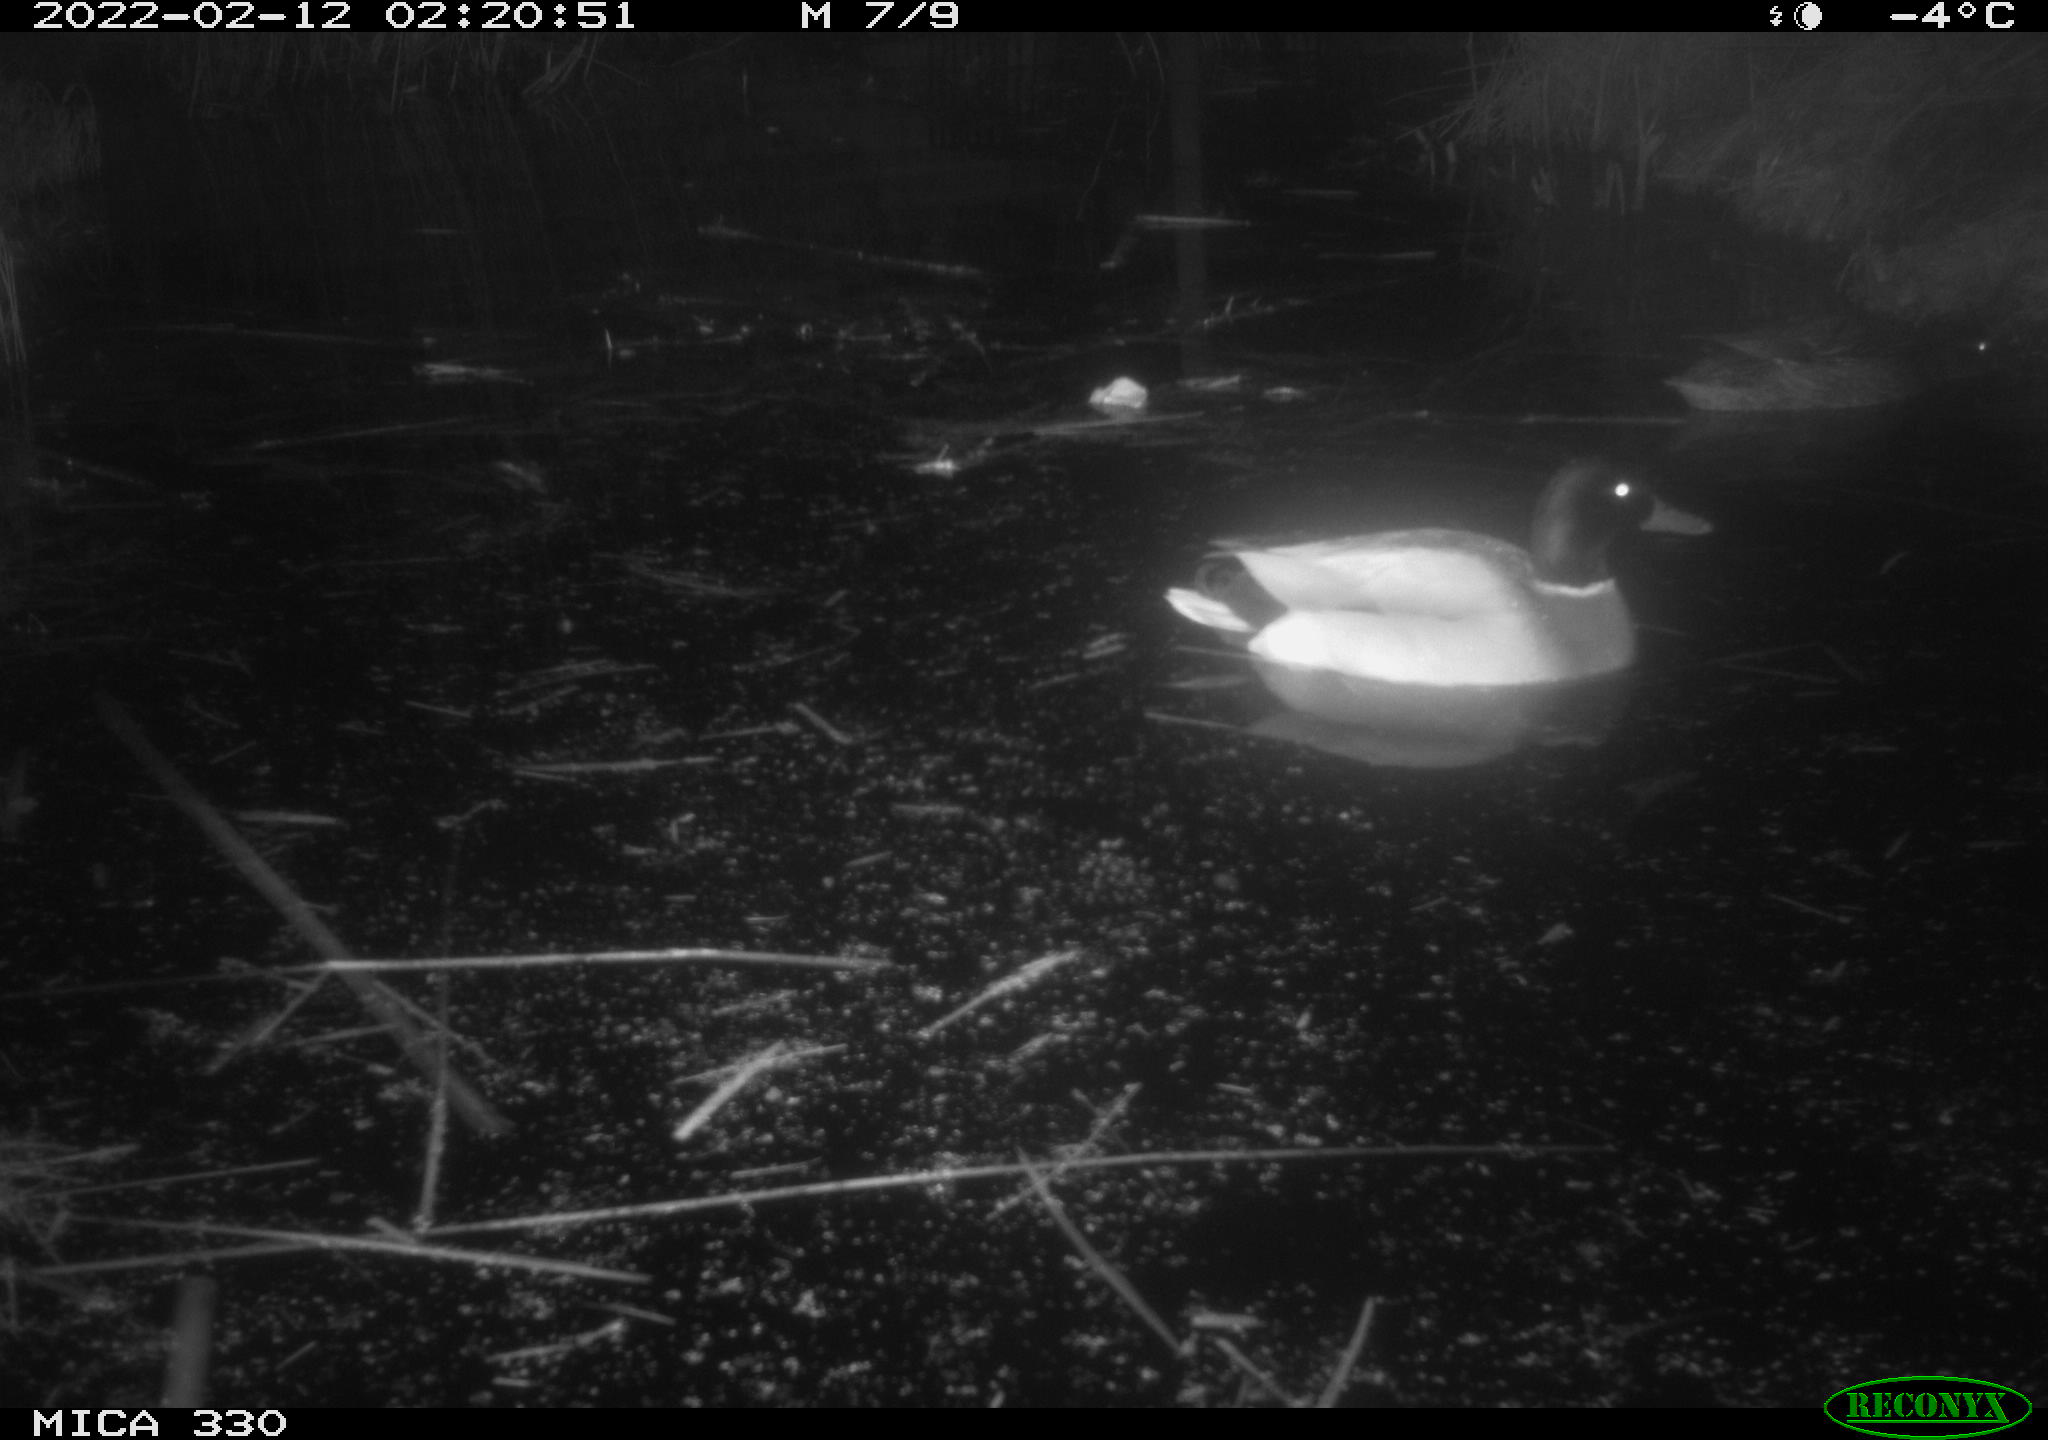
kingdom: Animalia
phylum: Chordata
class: Aves
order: Anseriformes
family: Anatidae
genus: Anas
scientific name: Anas platyrhynchos
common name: Mallard
